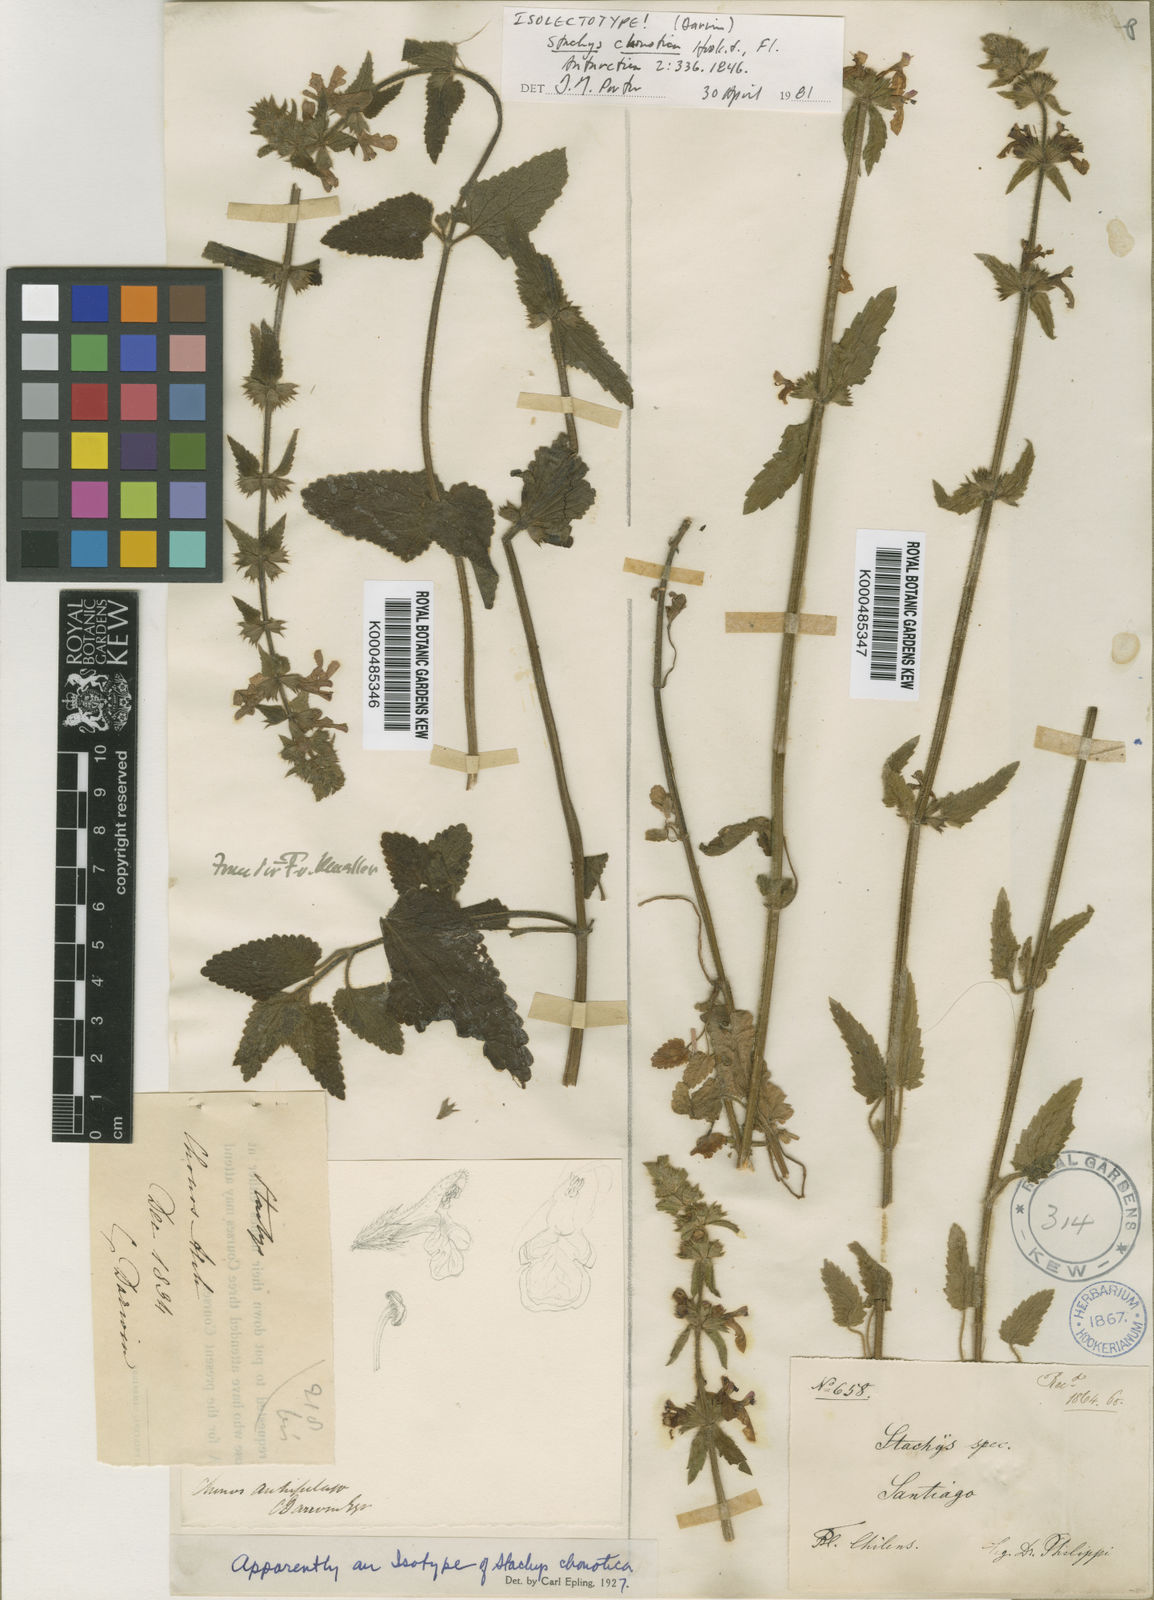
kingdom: Plantae
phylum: Tracheophyta
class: Magnoliopsida
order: Lamiales
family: Lamiaceae
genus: Stachys
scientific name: Stachys macraei
